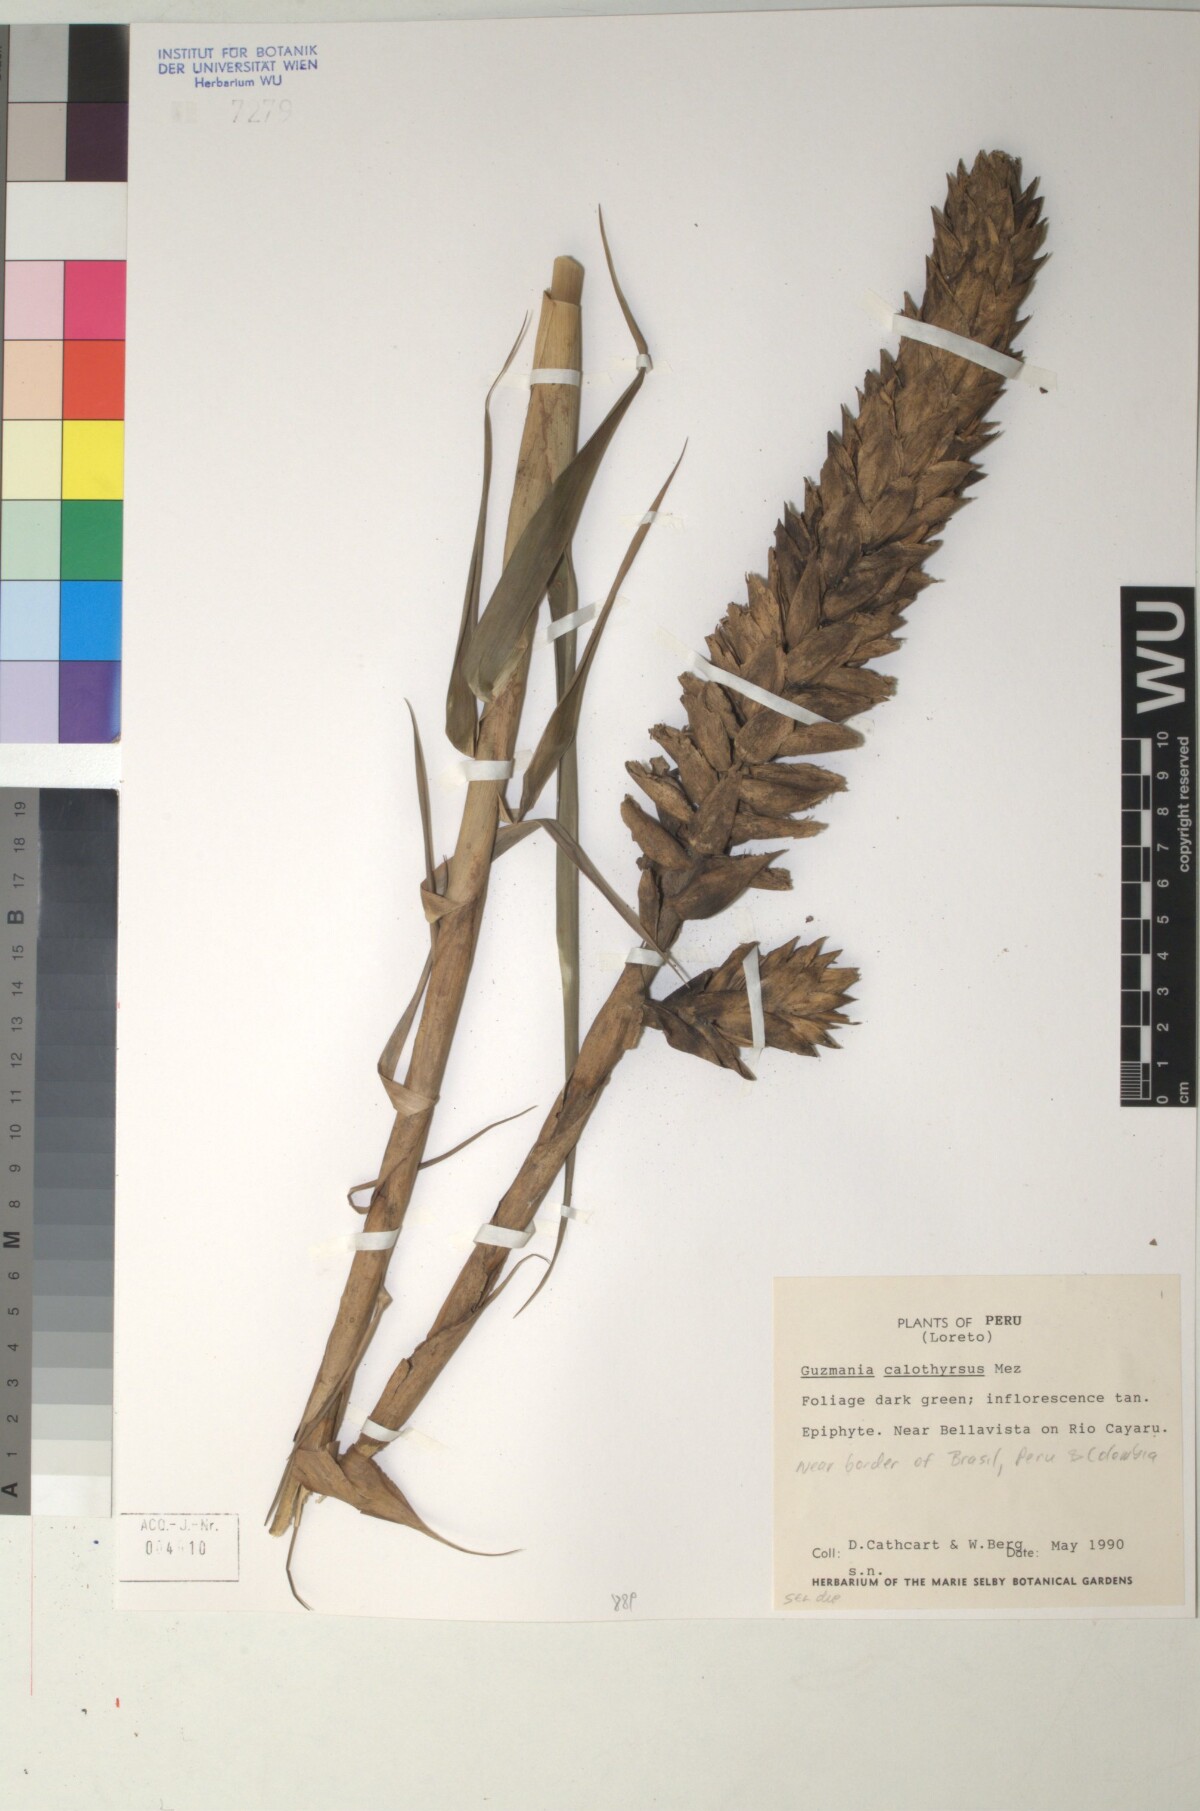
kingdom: Plantae
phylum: Tracheophyta
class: Liliopsida
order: Poales
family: Bromeliaceae
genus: Guzmania
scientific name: Guzmania calothyrsus
